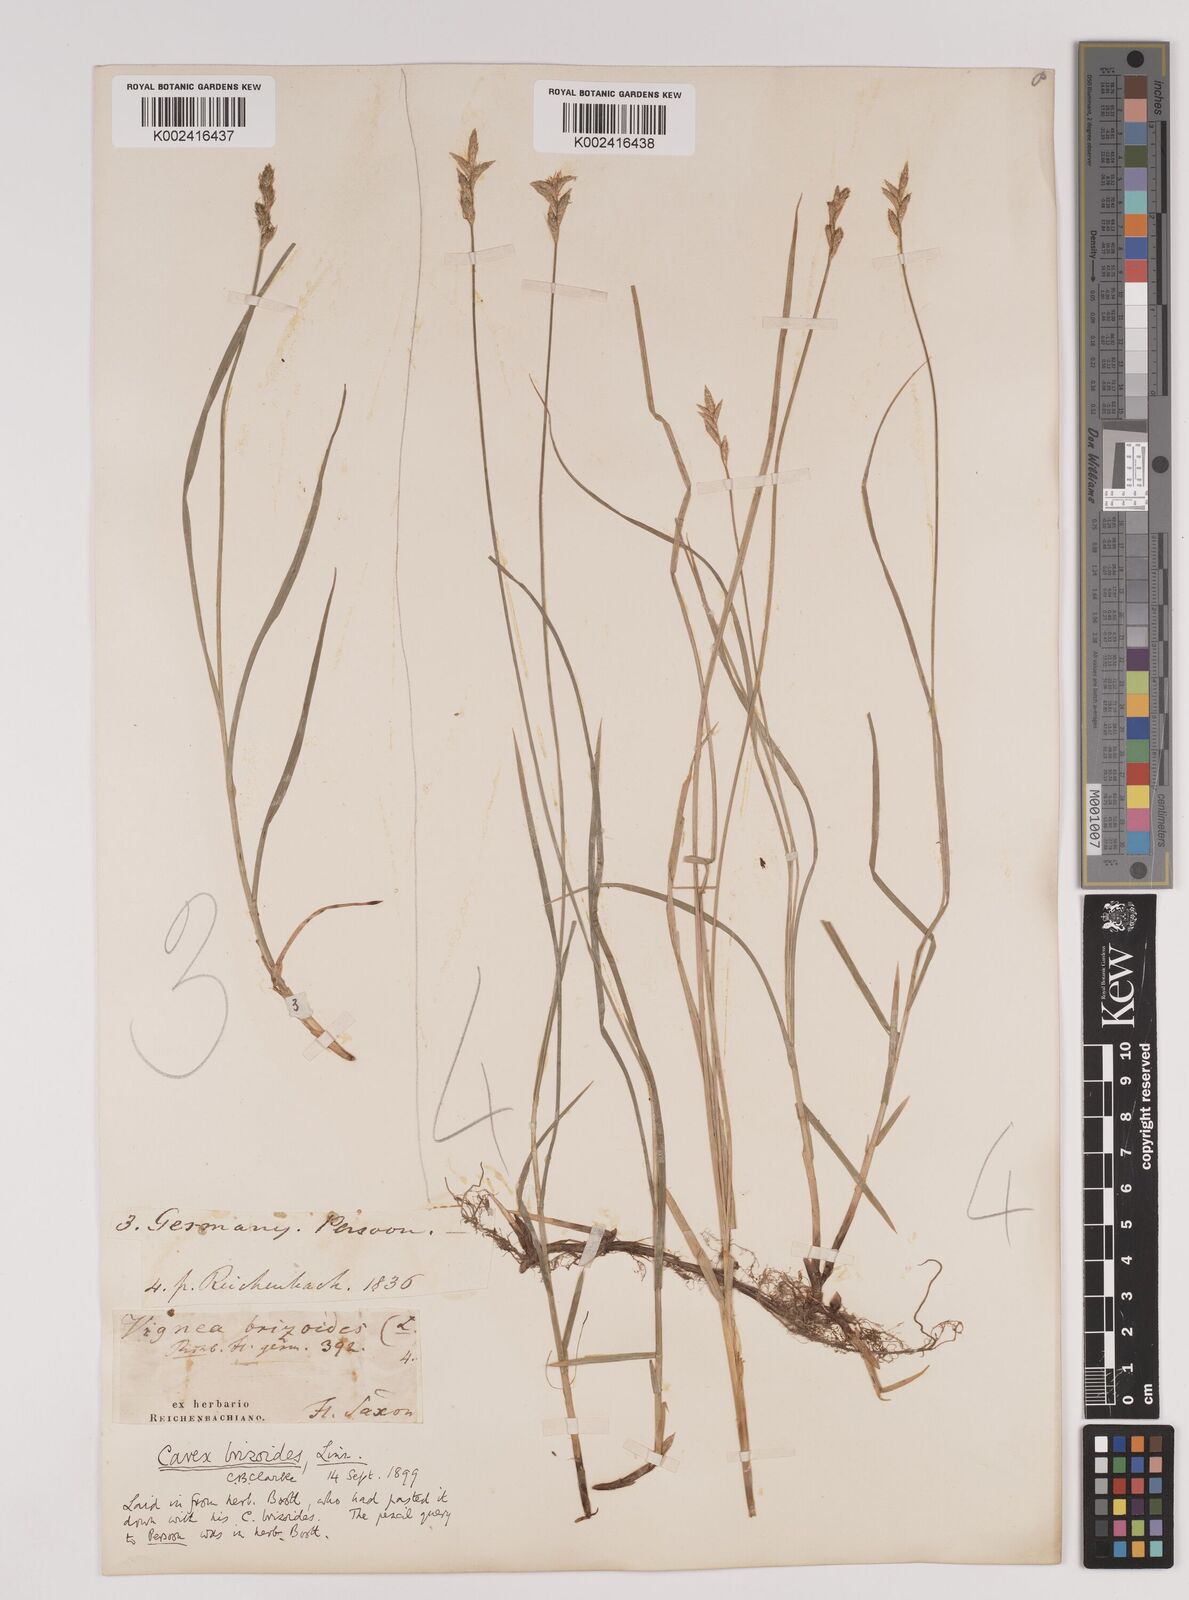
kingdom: Plantae
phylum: Tracheophyta
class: Liliopsida
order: Poales
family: Cyperaceae
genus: Carex
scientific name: Carex brizoides
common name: Quaking-grass sedge
